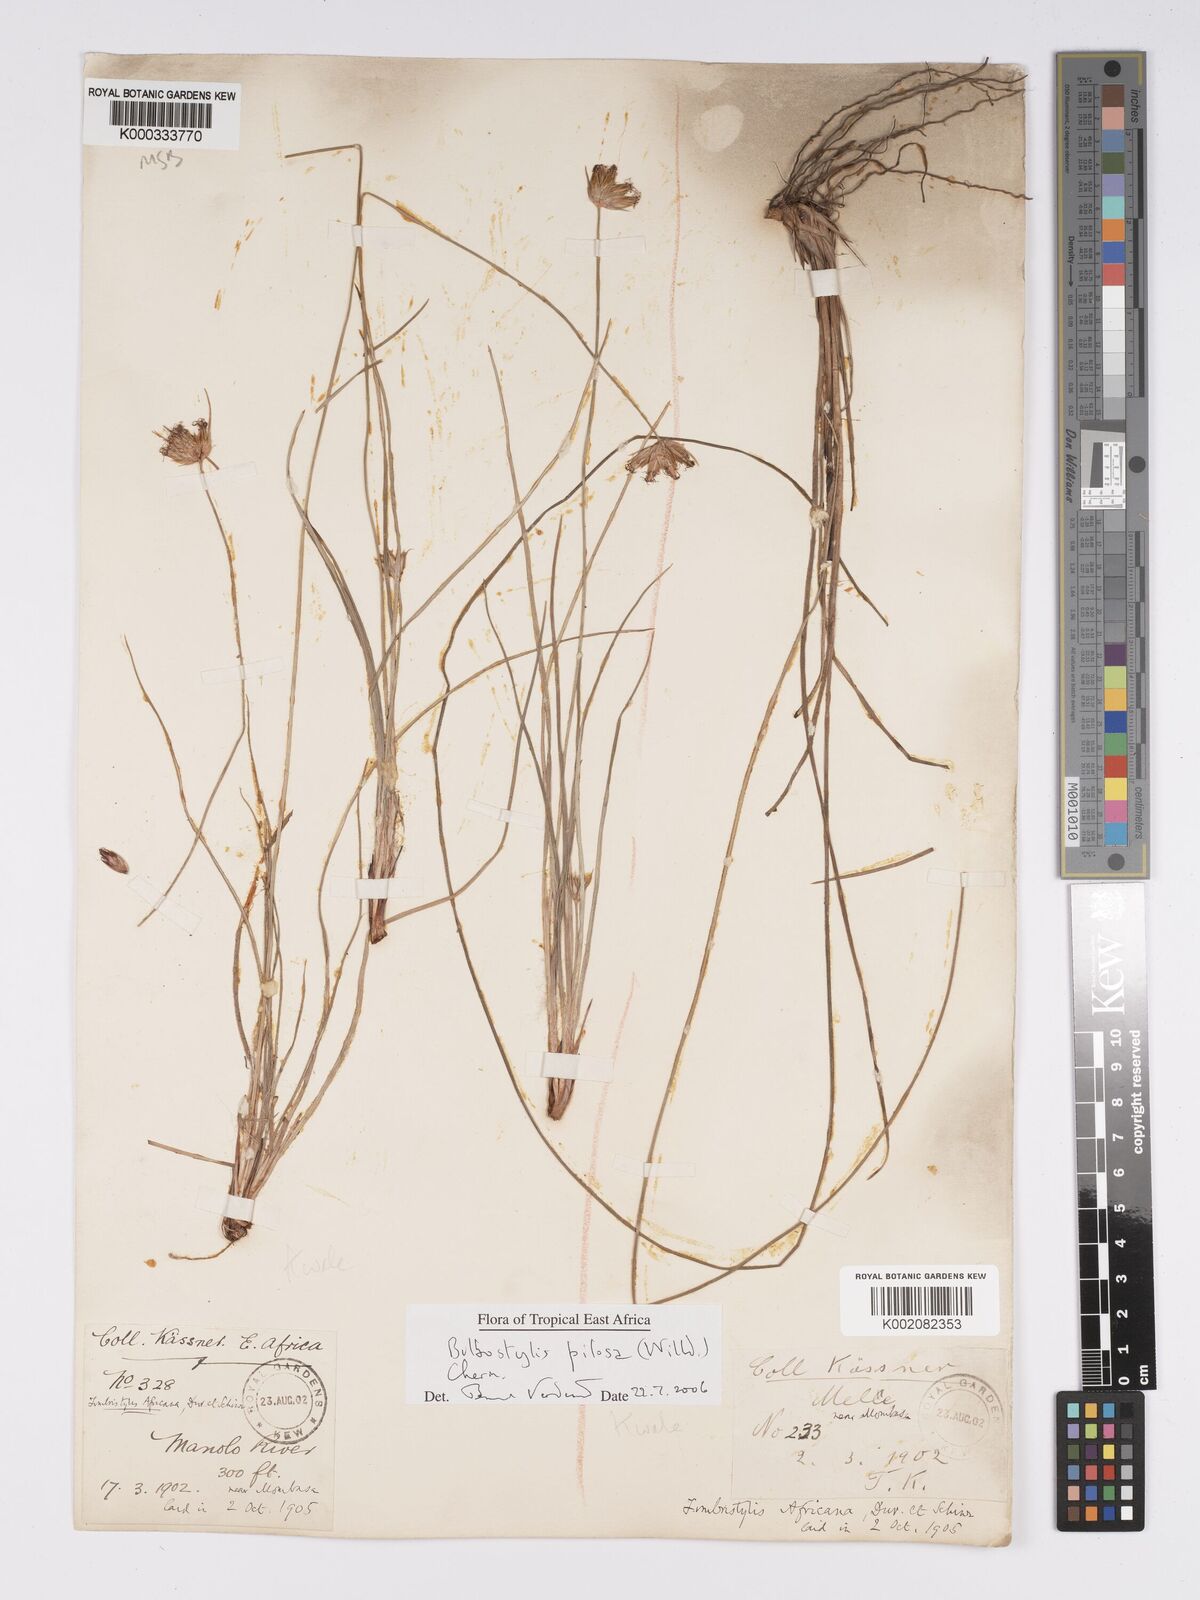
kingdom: Plantae
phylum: Tracheophyta
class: Liliopsida
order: Poales
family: Cyperaceae
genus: Bulbostylis
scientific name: Bulbostylis pilosa
